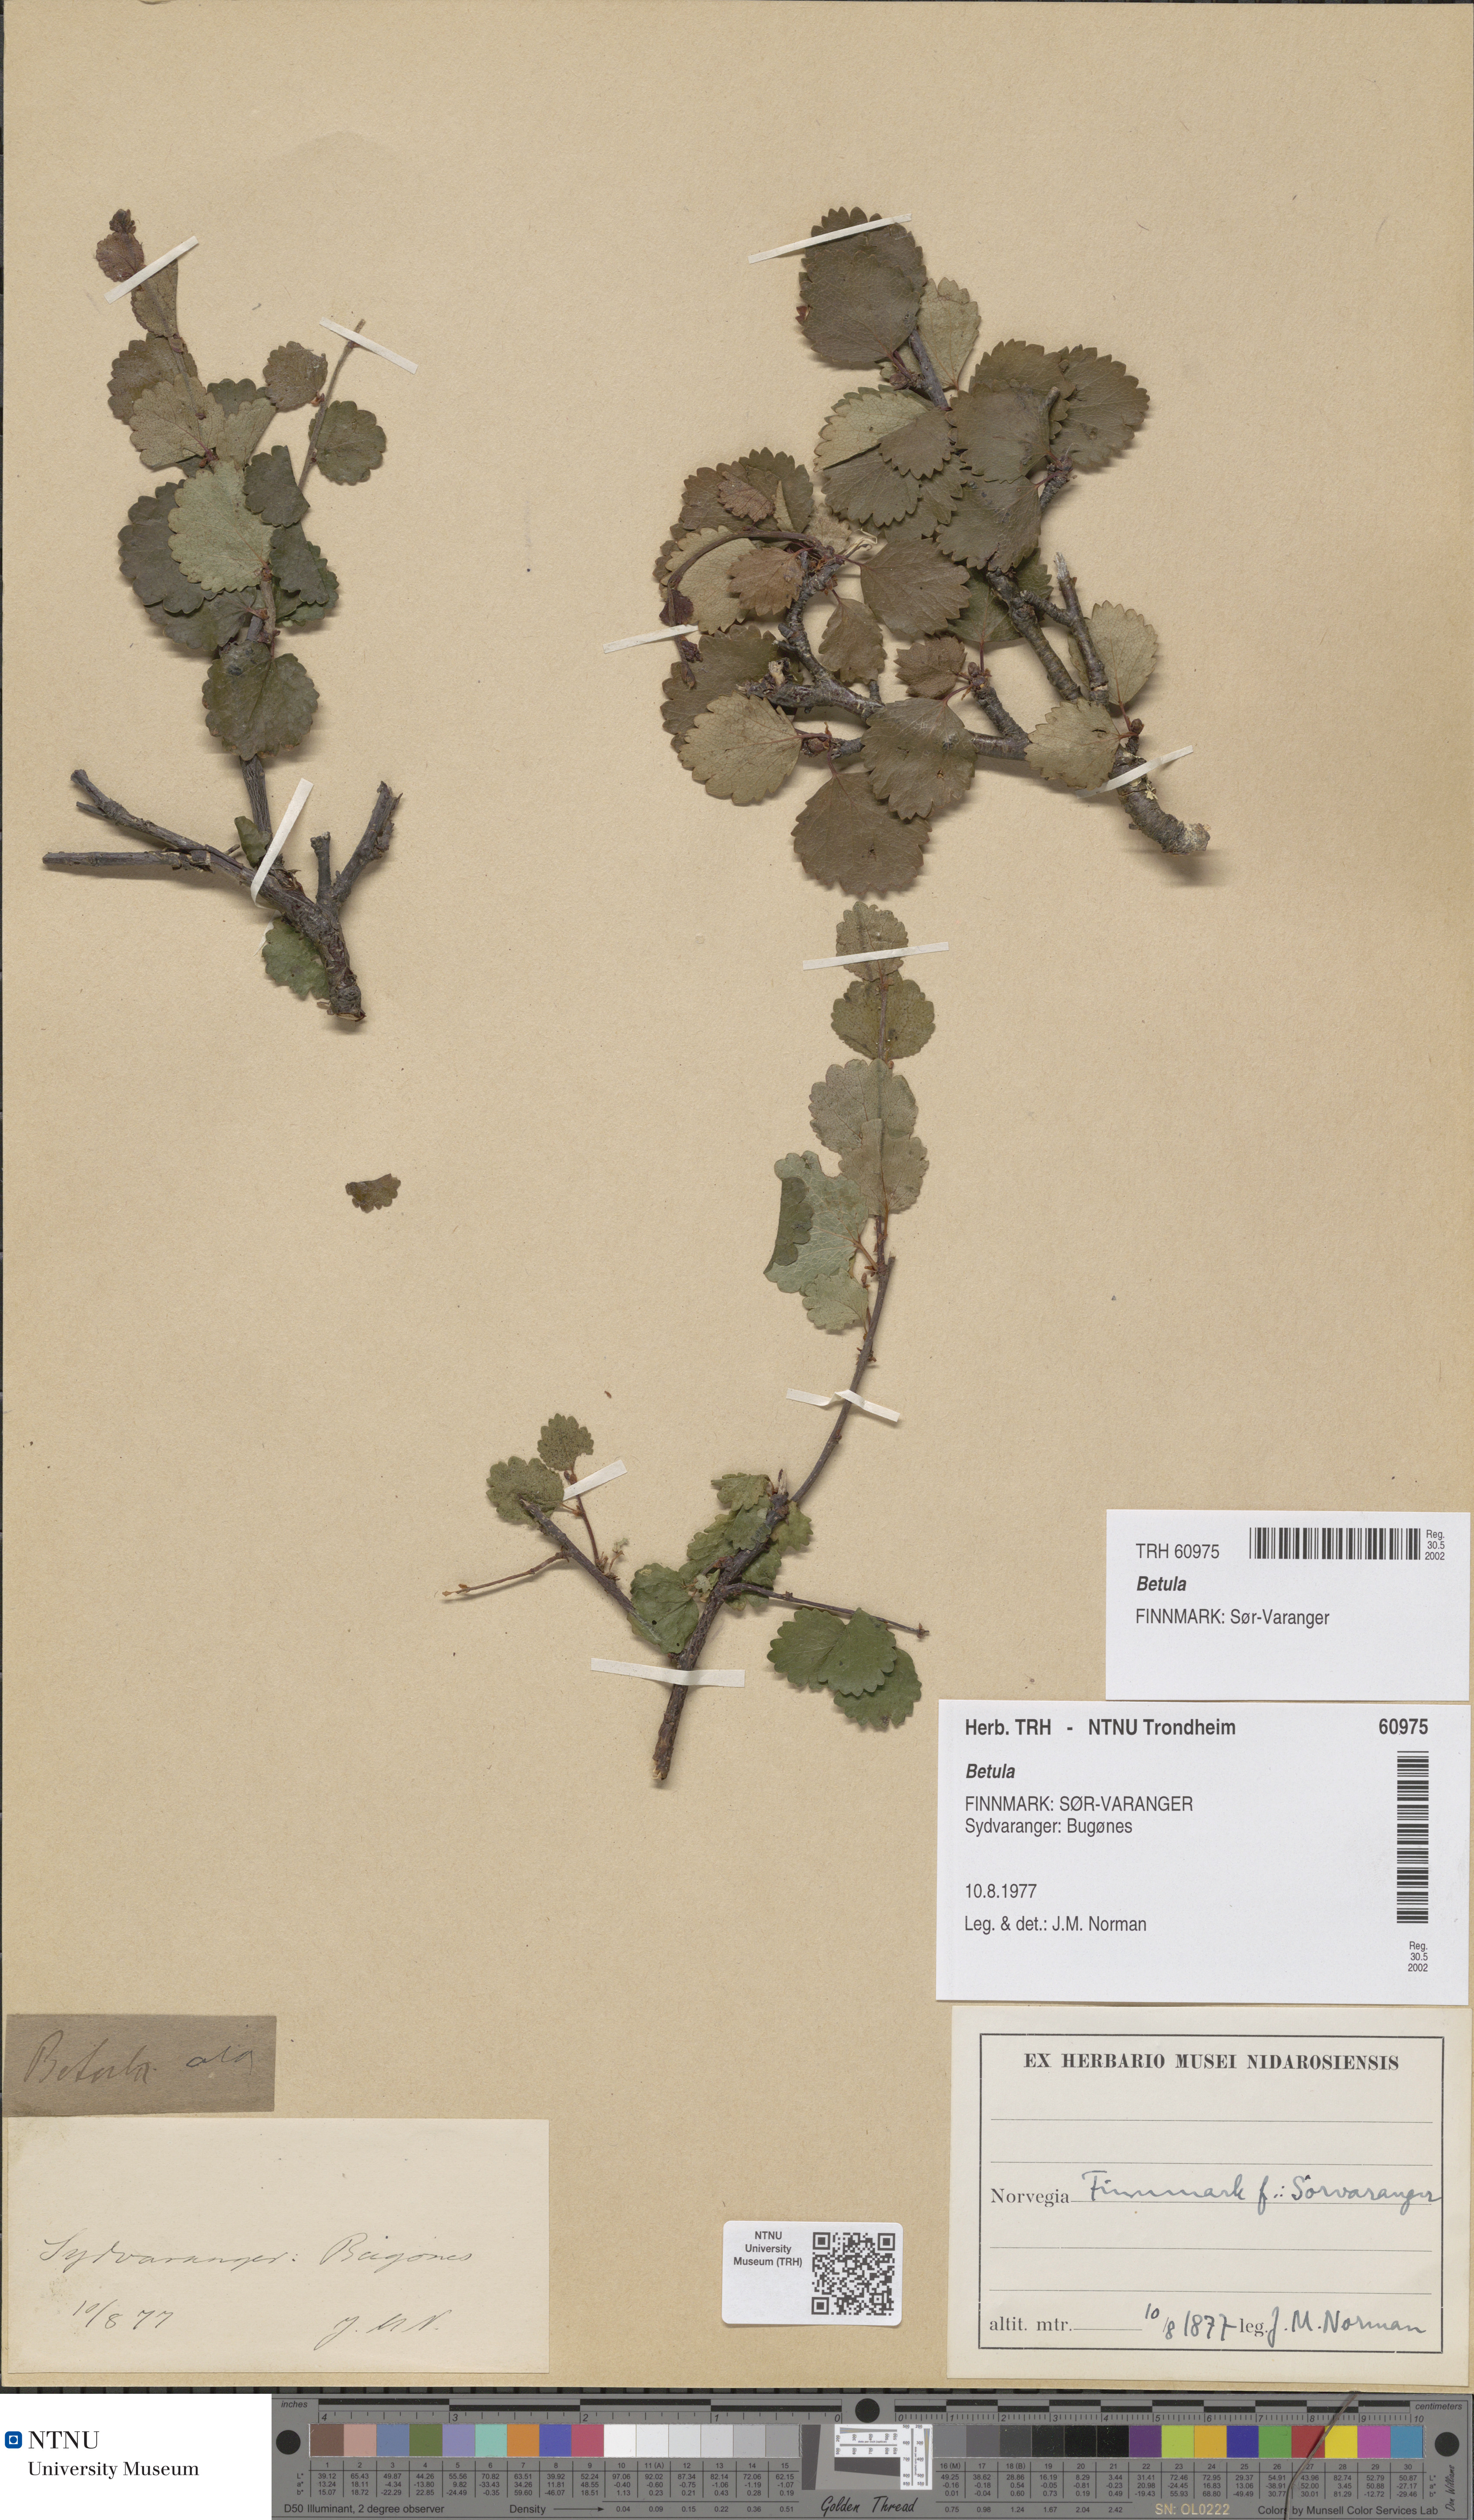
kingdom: Plantae
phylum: Tracheophyta
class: Magnoliopsida
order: Fagales
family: Betulaceae
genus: Betula
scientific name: Betula
